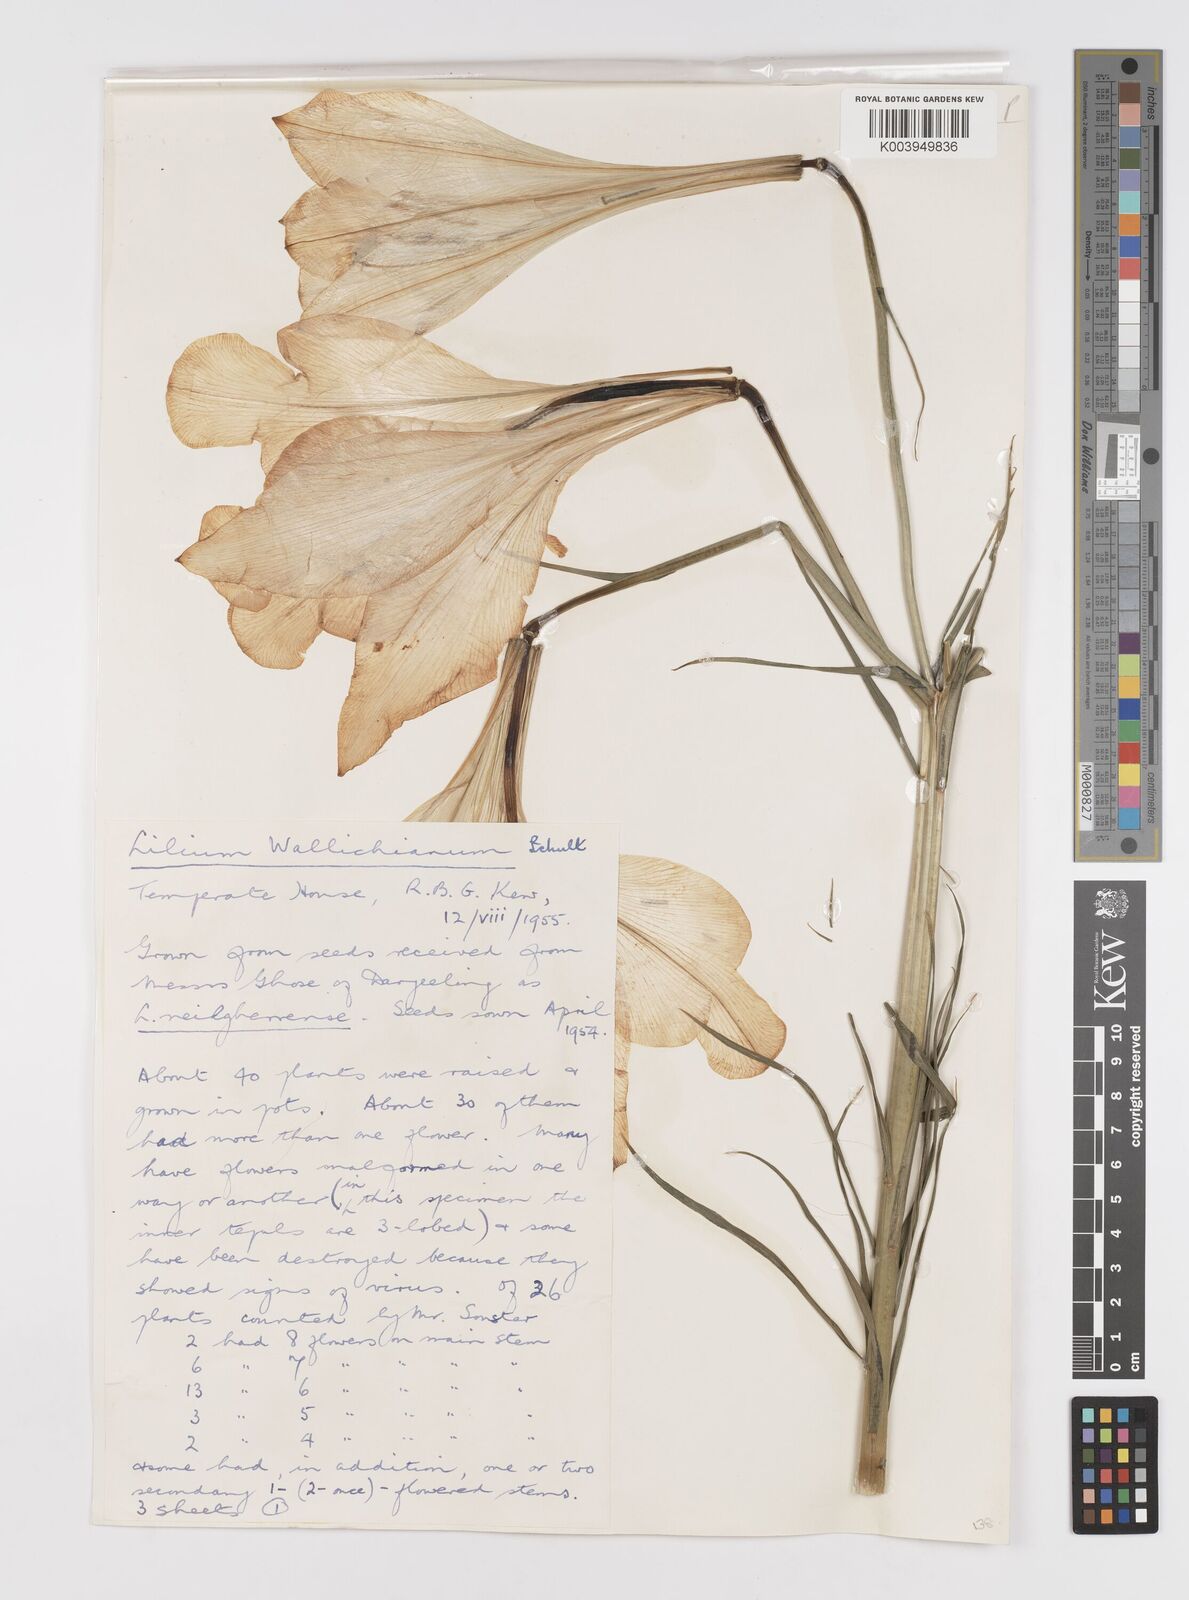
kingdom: Plantae
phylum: Tracheophyta
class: Liliopsida
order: Liliales
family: Liliaceae
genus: Lilium
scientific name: Lilium wallichianum
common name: Wallich's lily
